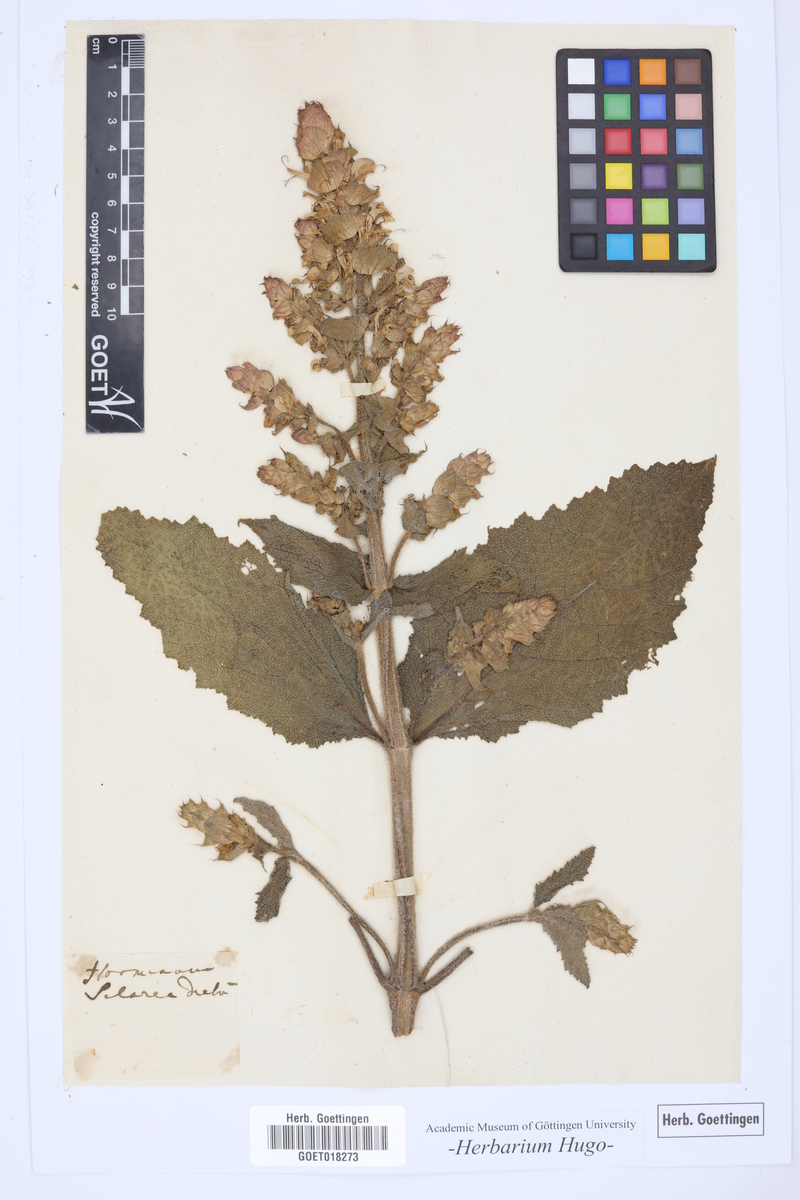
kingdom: Plantae
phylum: Tracheophyta
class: Magnoliopsida
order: Lamiales
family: Lamiaceae
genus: Horminum
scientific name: Horminum
